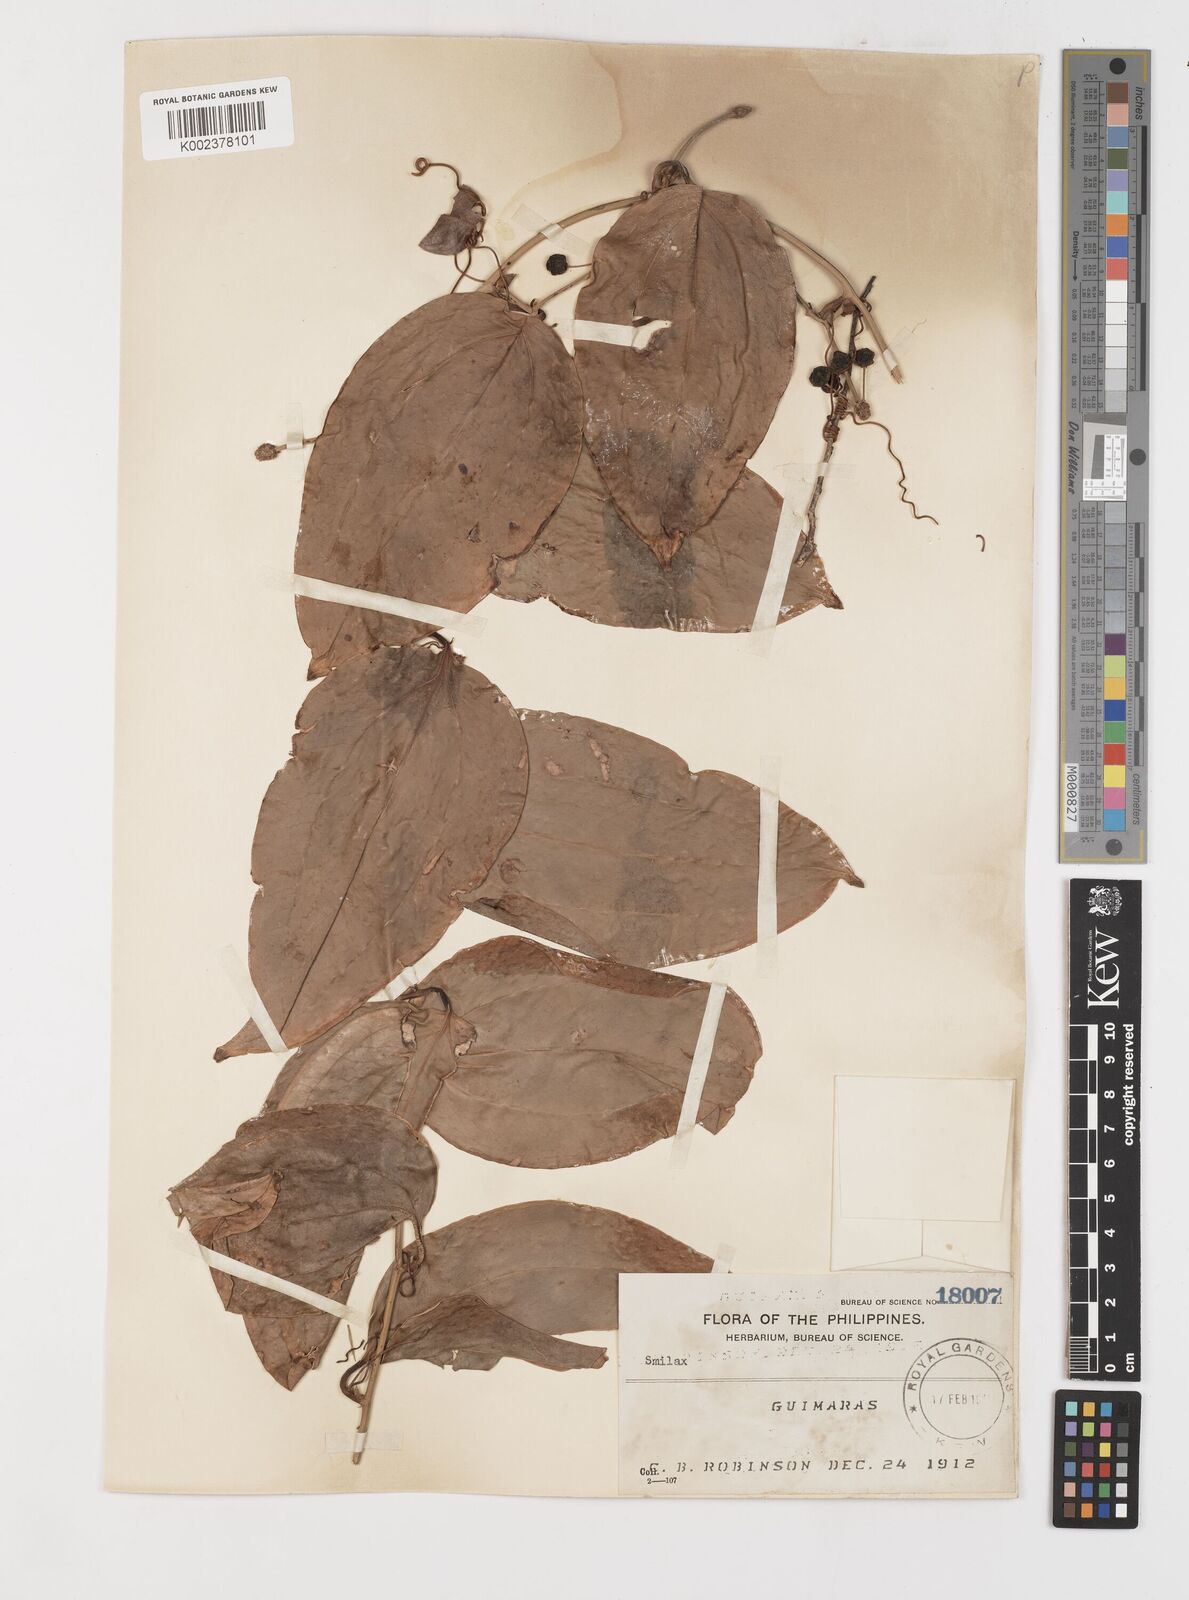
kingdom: Plantae
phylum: Tracheophyta
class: Liliopsida
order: Liliales
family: Smilacaceae
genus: Smilax
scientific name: Smilax
